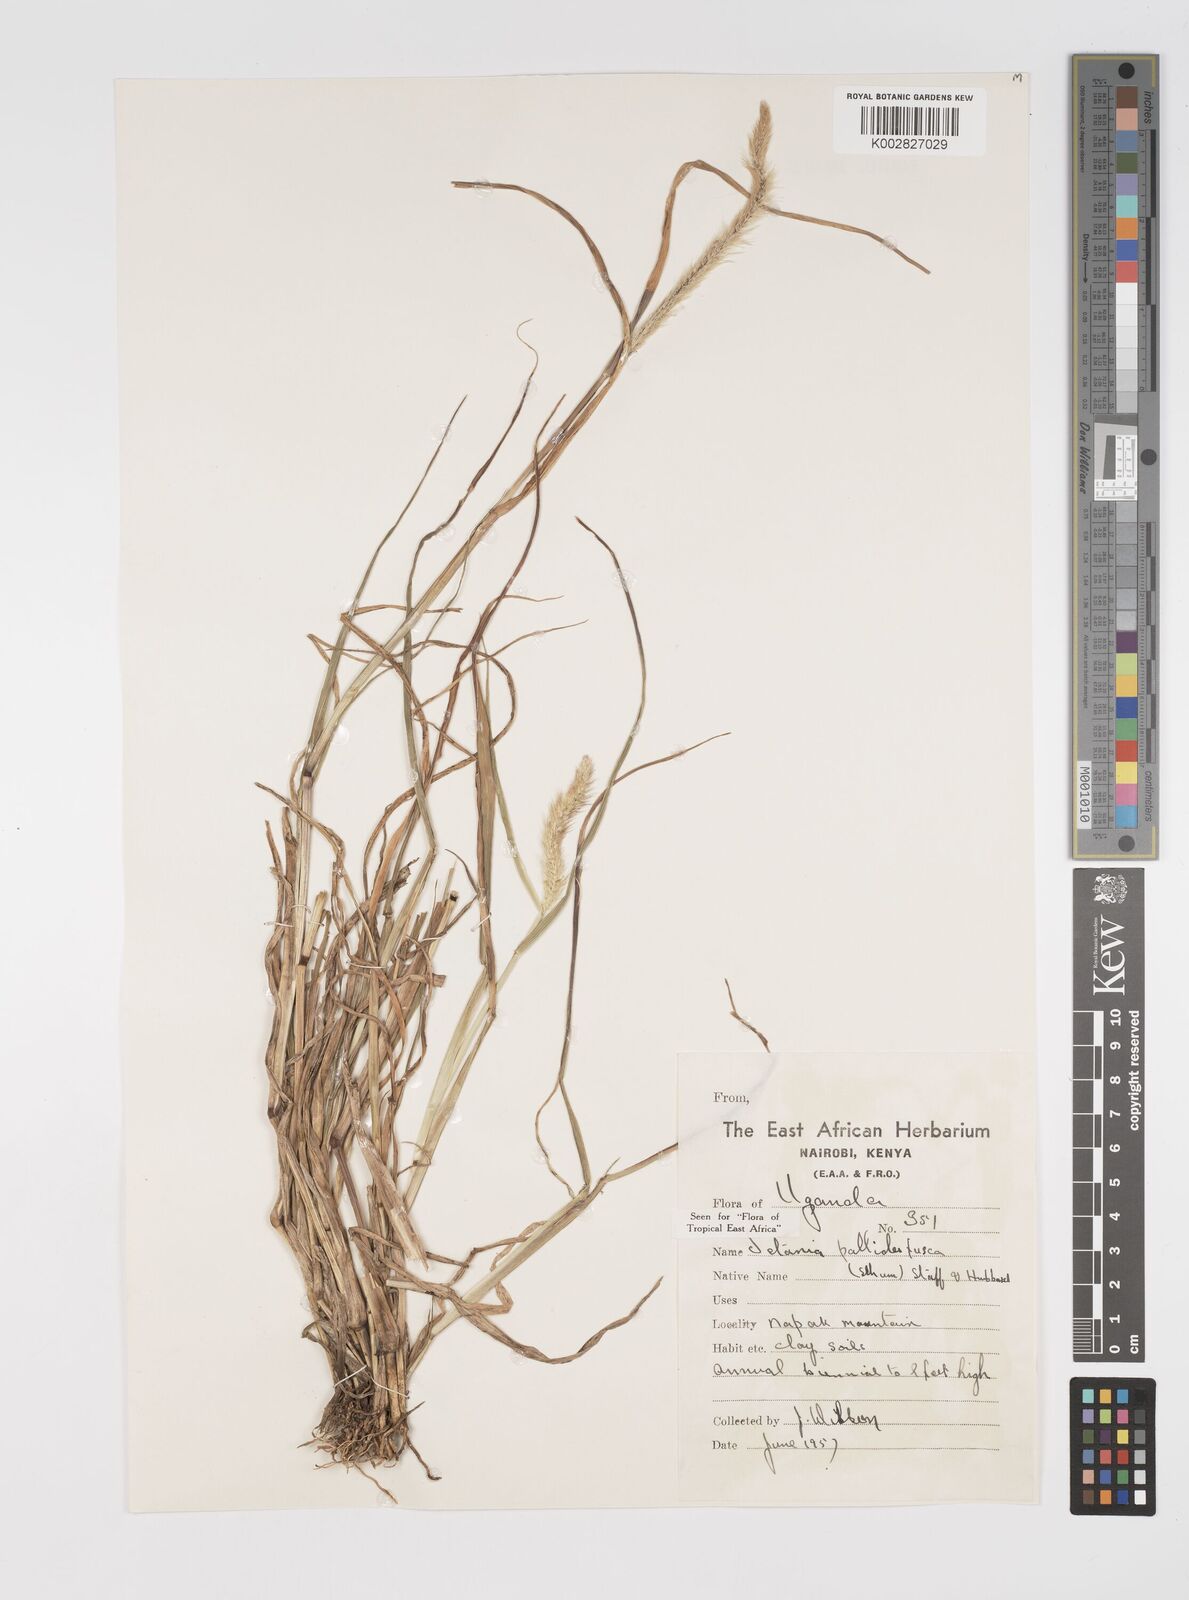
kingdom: Plantae
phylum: Tracheophyta
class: Liliopsida
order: Poales
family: Poaceae
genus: Setaria
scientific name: Setaria pumila
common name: Yellow bristle-grass
